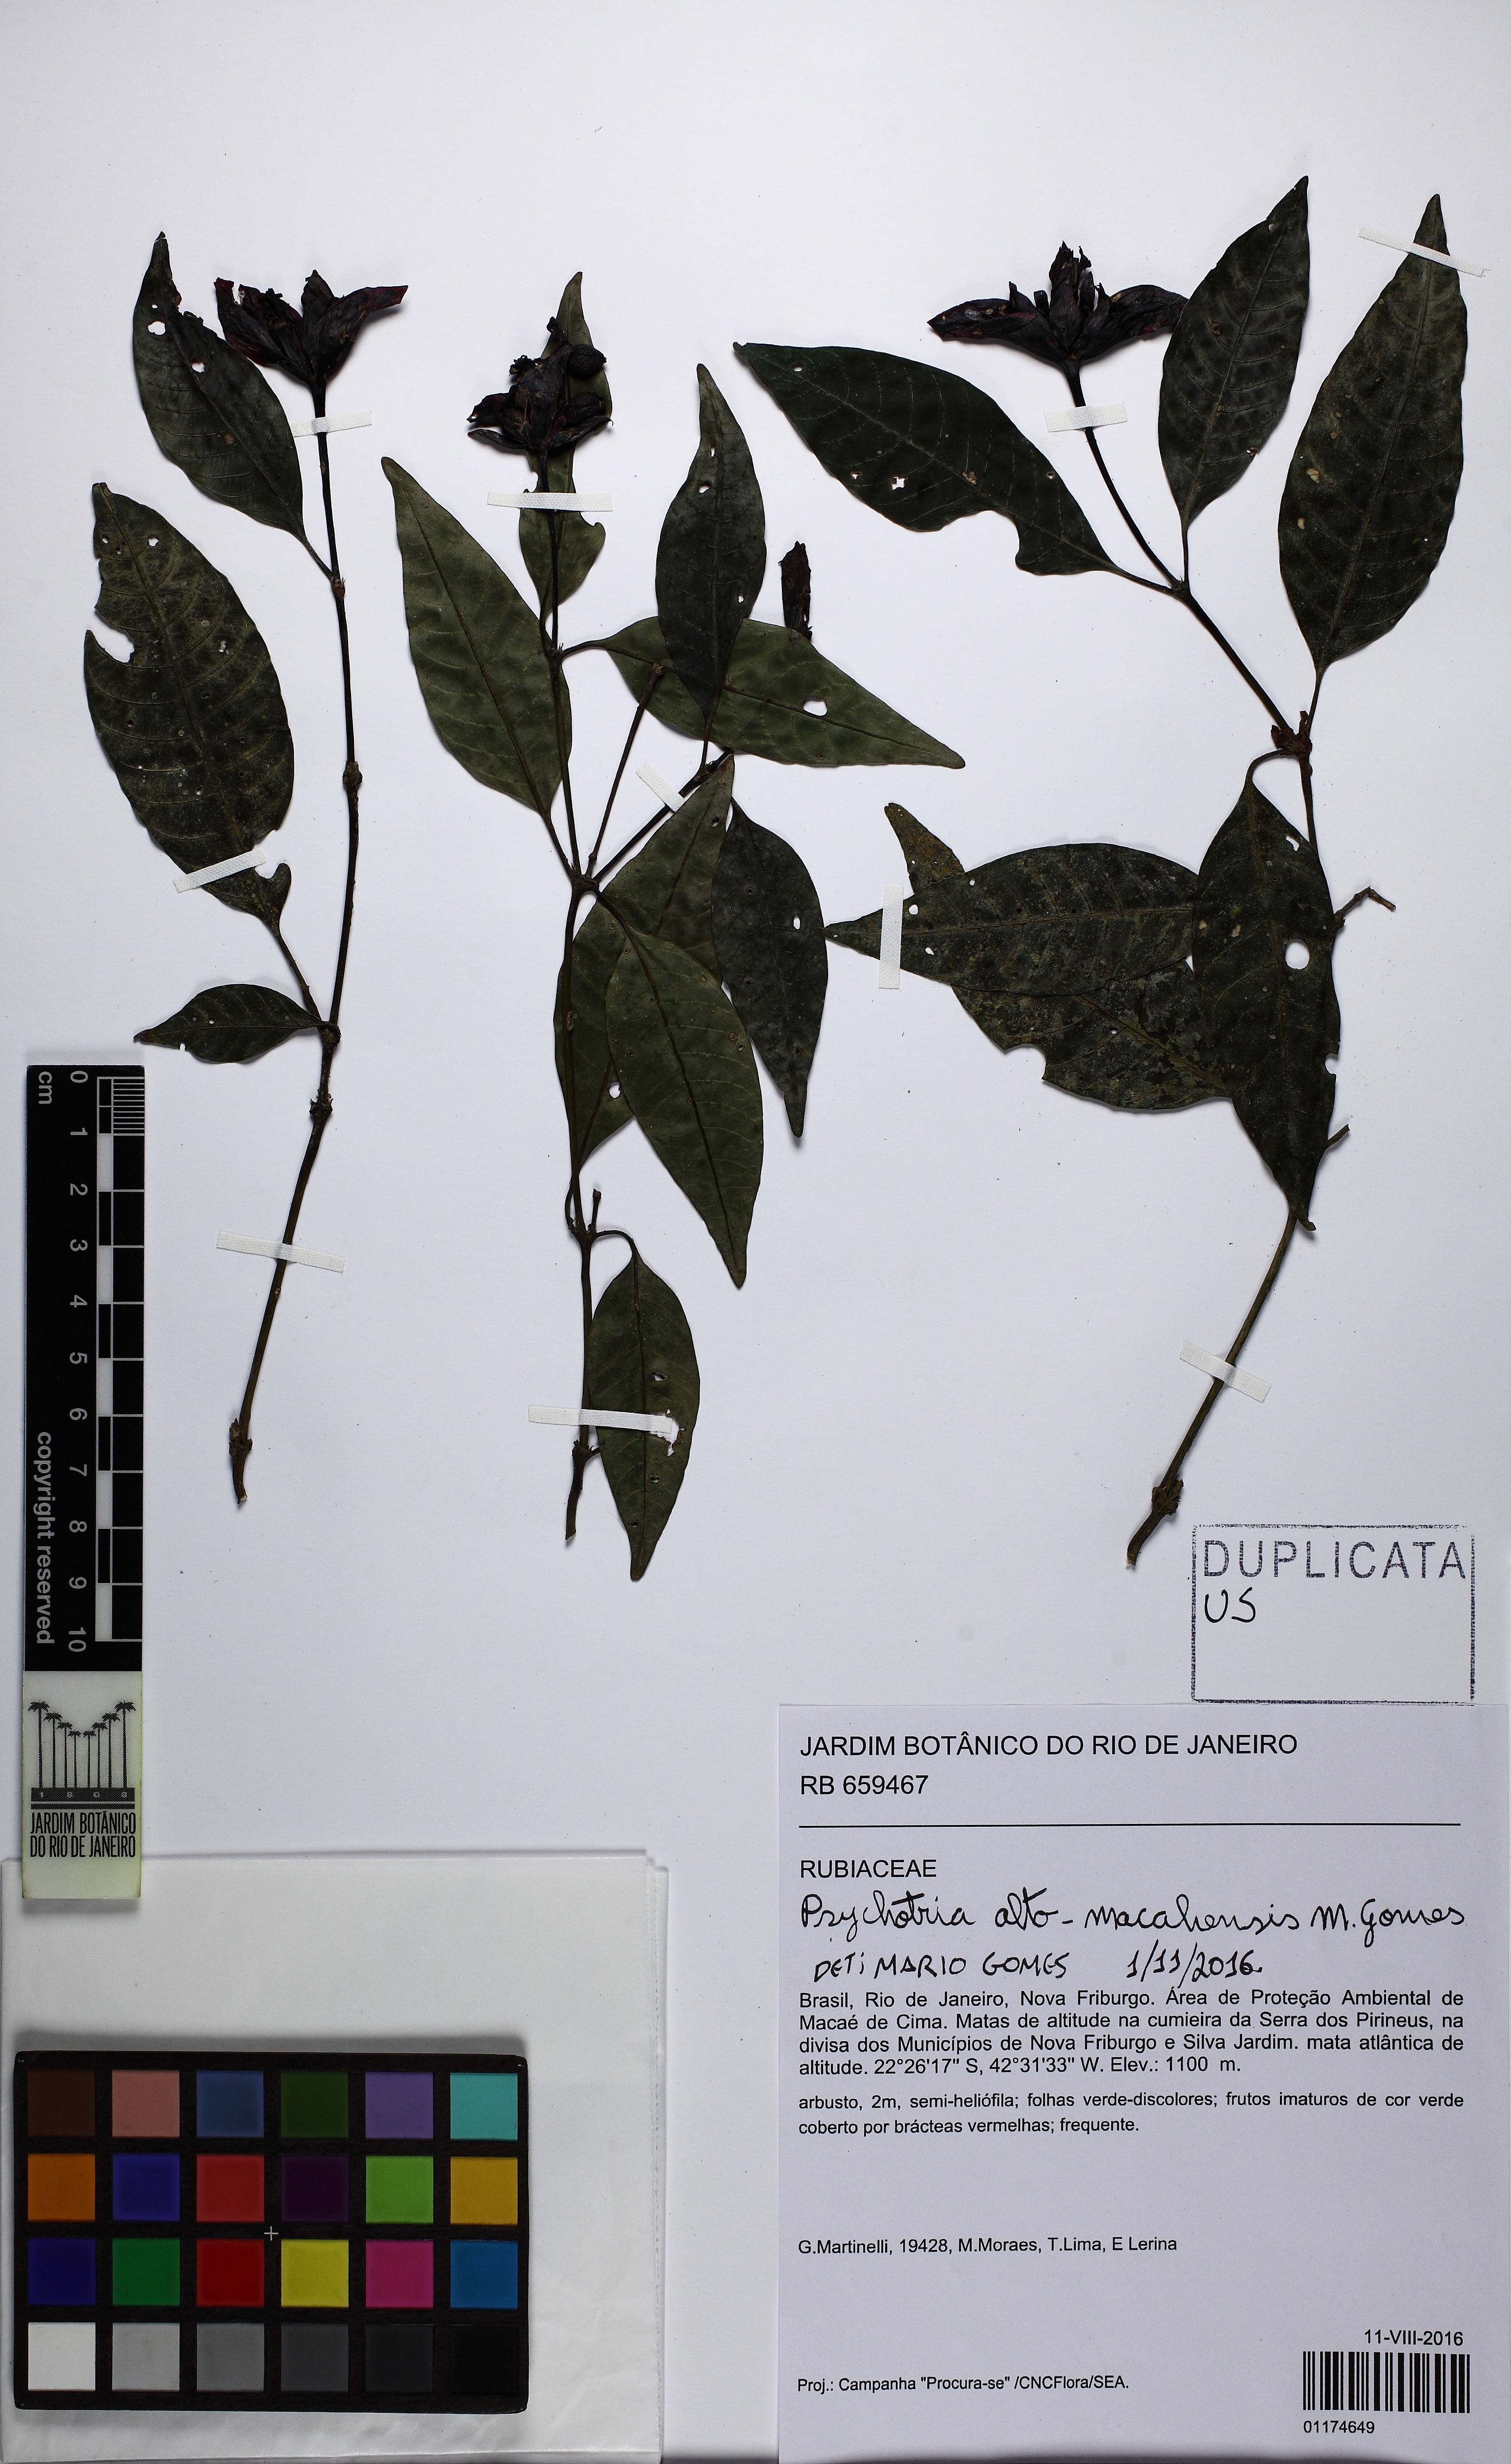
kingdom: Plantae
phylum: Tracheophyta
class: Magnoliopsida
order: Gentianales
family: Rubiaceae
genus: Psychotria
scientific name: Psychotria alto-macahensis
